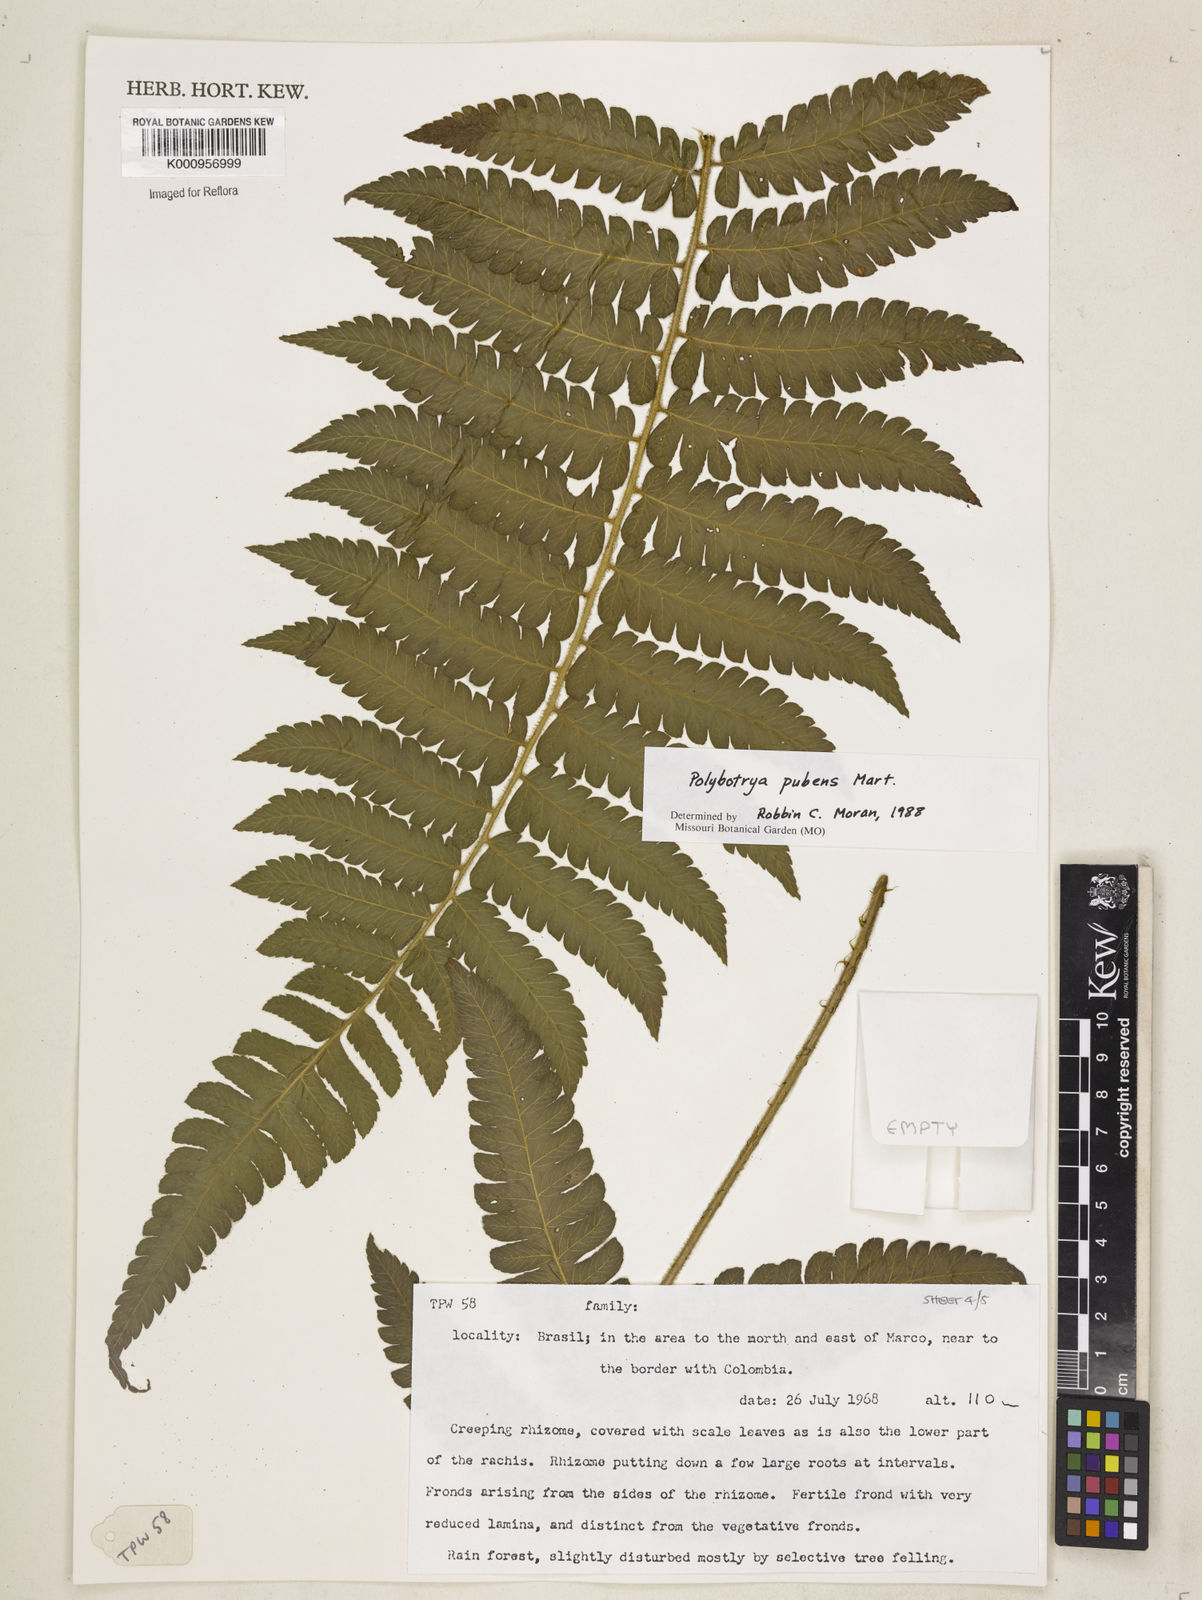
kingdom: Plantae
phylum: Tracheophyta
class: Polypodiopsida
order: Polypodiales
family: Dryopteridaceae
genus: Polybotrya
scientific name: Polybotrya pubens
